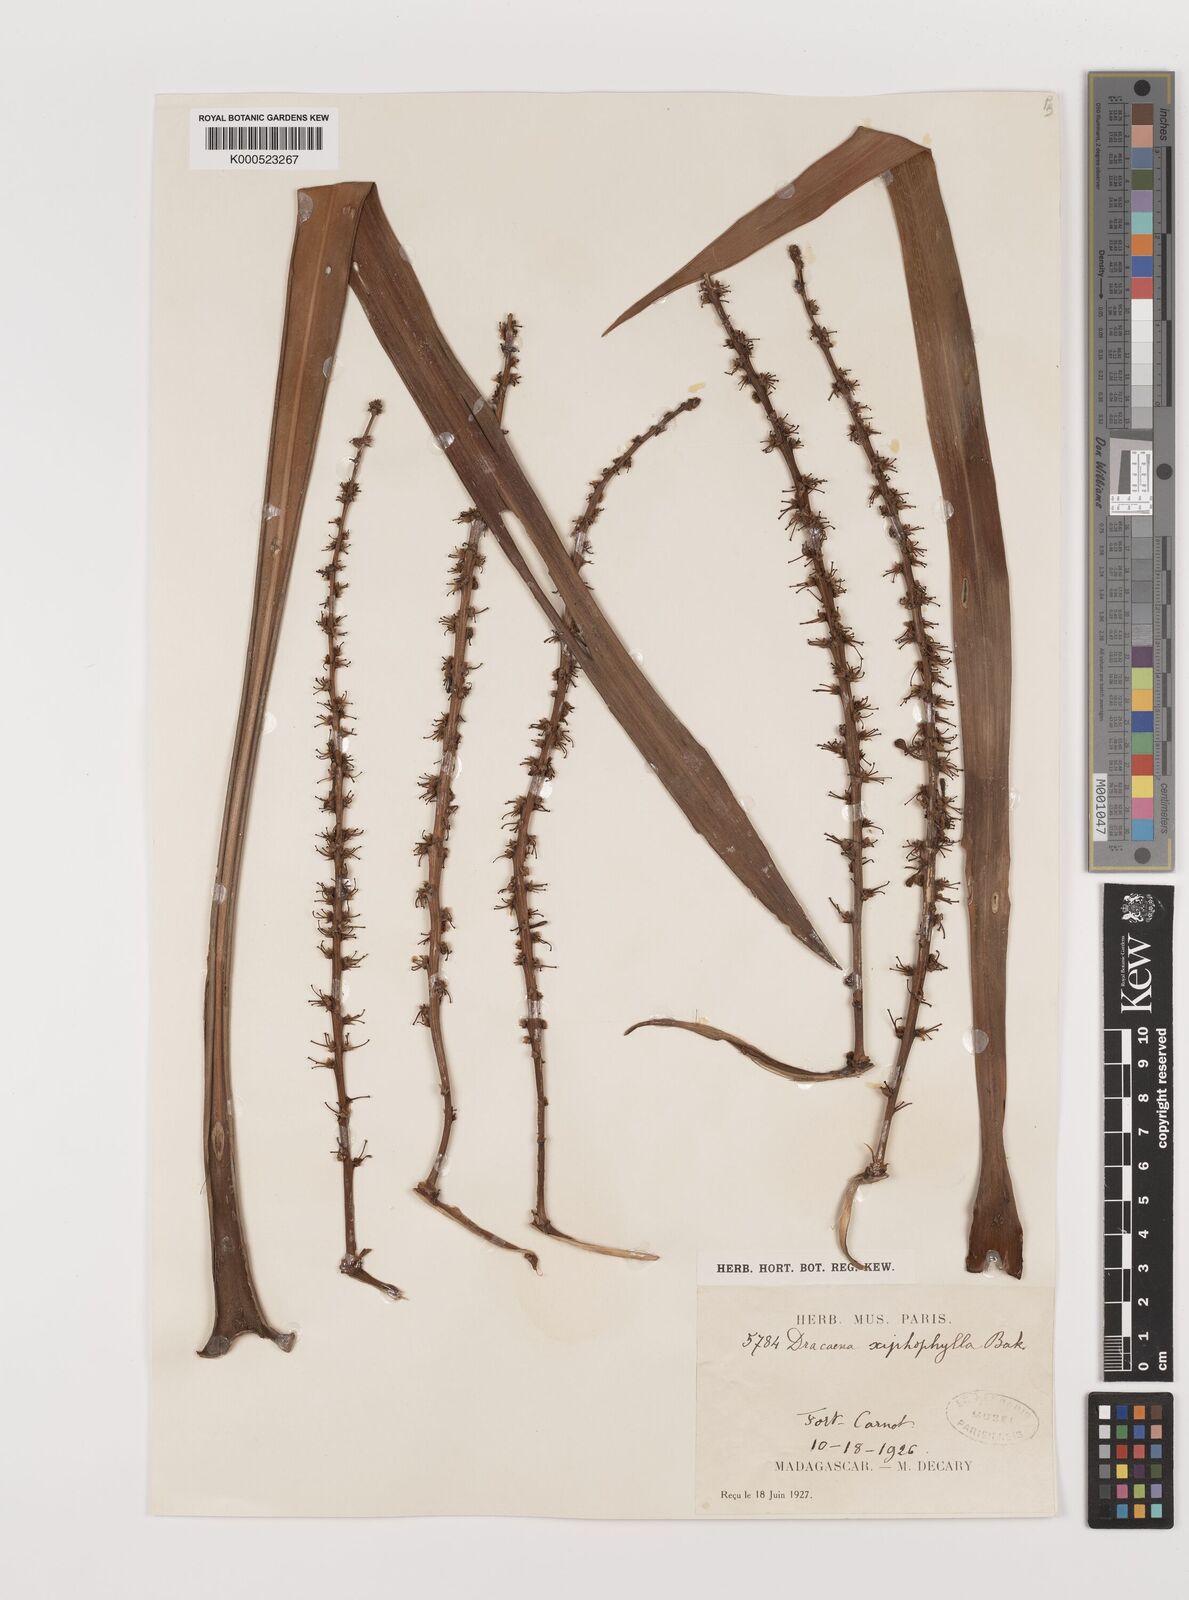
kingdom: Plantae
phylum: Tracheophyta
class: Liliopsida
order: Asparagales
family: Asparagaceae
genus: Dracaena
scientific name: Dracaena xiphophylla
